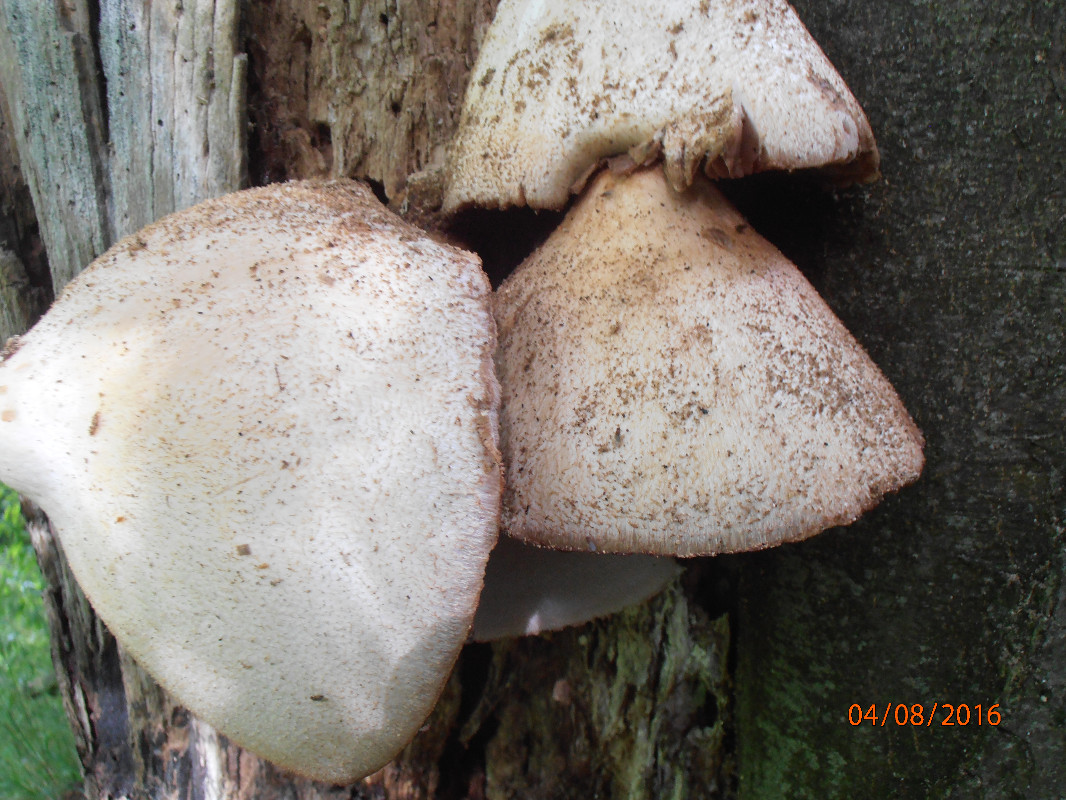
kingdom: Fungi
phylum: Basidiomycota
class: Agaricomycetes
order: Agaricales
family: Pluteaceae
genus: Volvariella
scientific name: Volvariella bombycina
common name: silkehåret posesvamp
